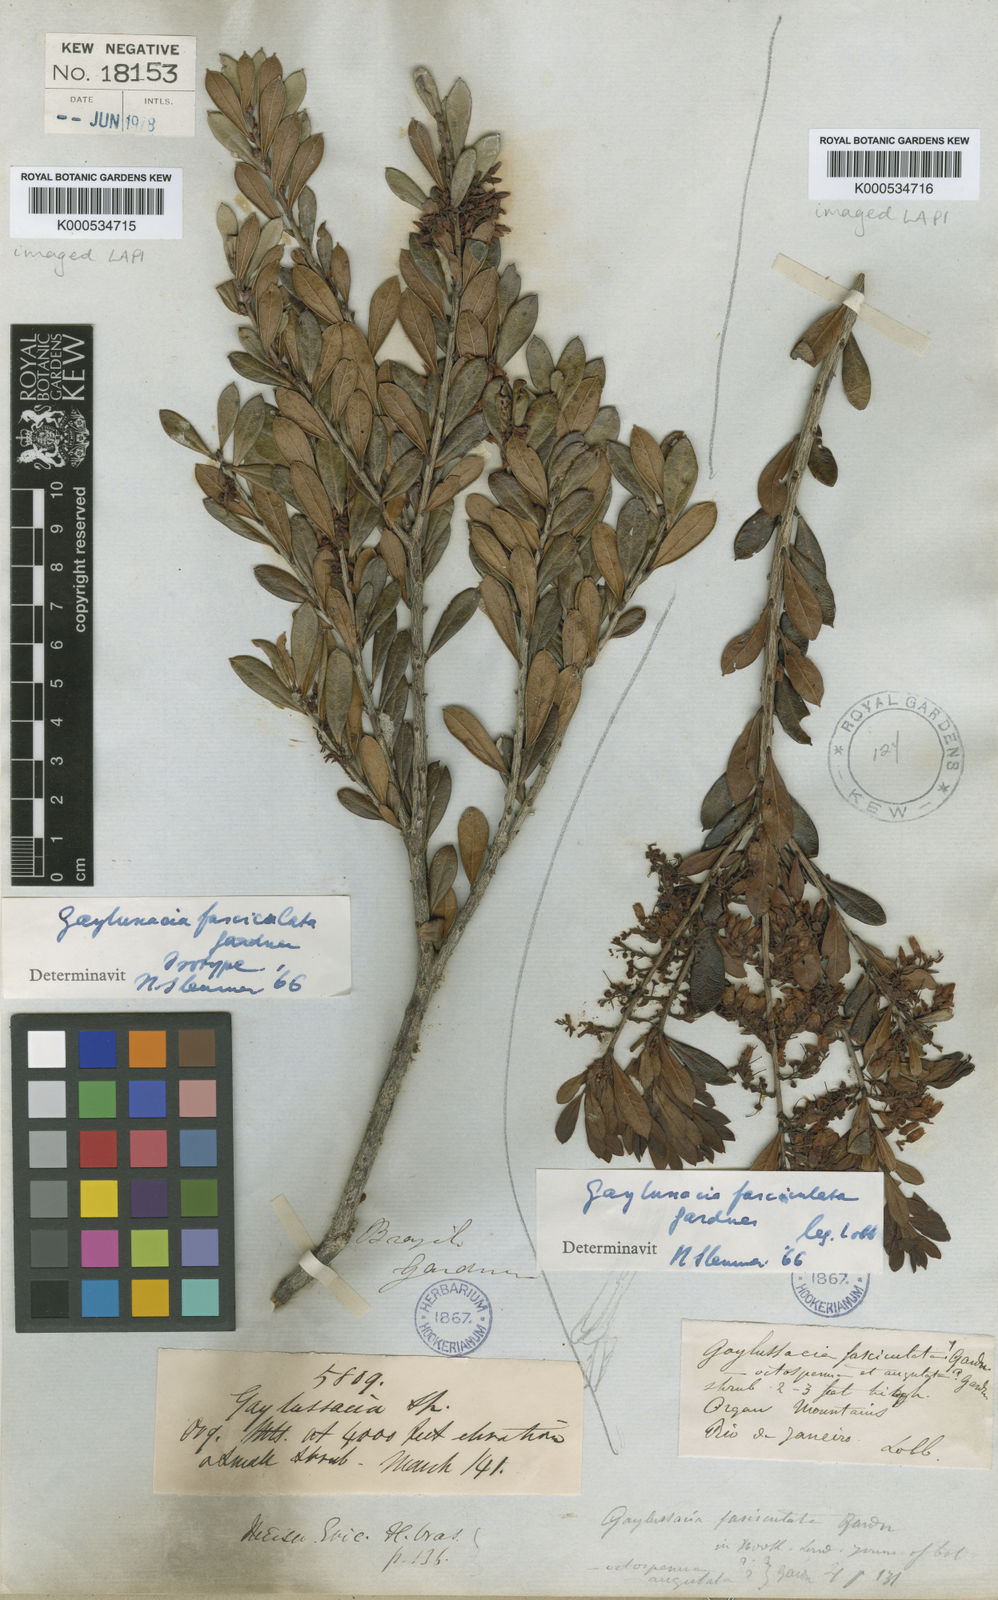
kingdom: Plantae
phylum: Tracheophyta
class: Magnoliopsida
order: Ericales
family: Ericaceae
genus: Gaylussacia
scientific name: Gaylussacia fasciculata
